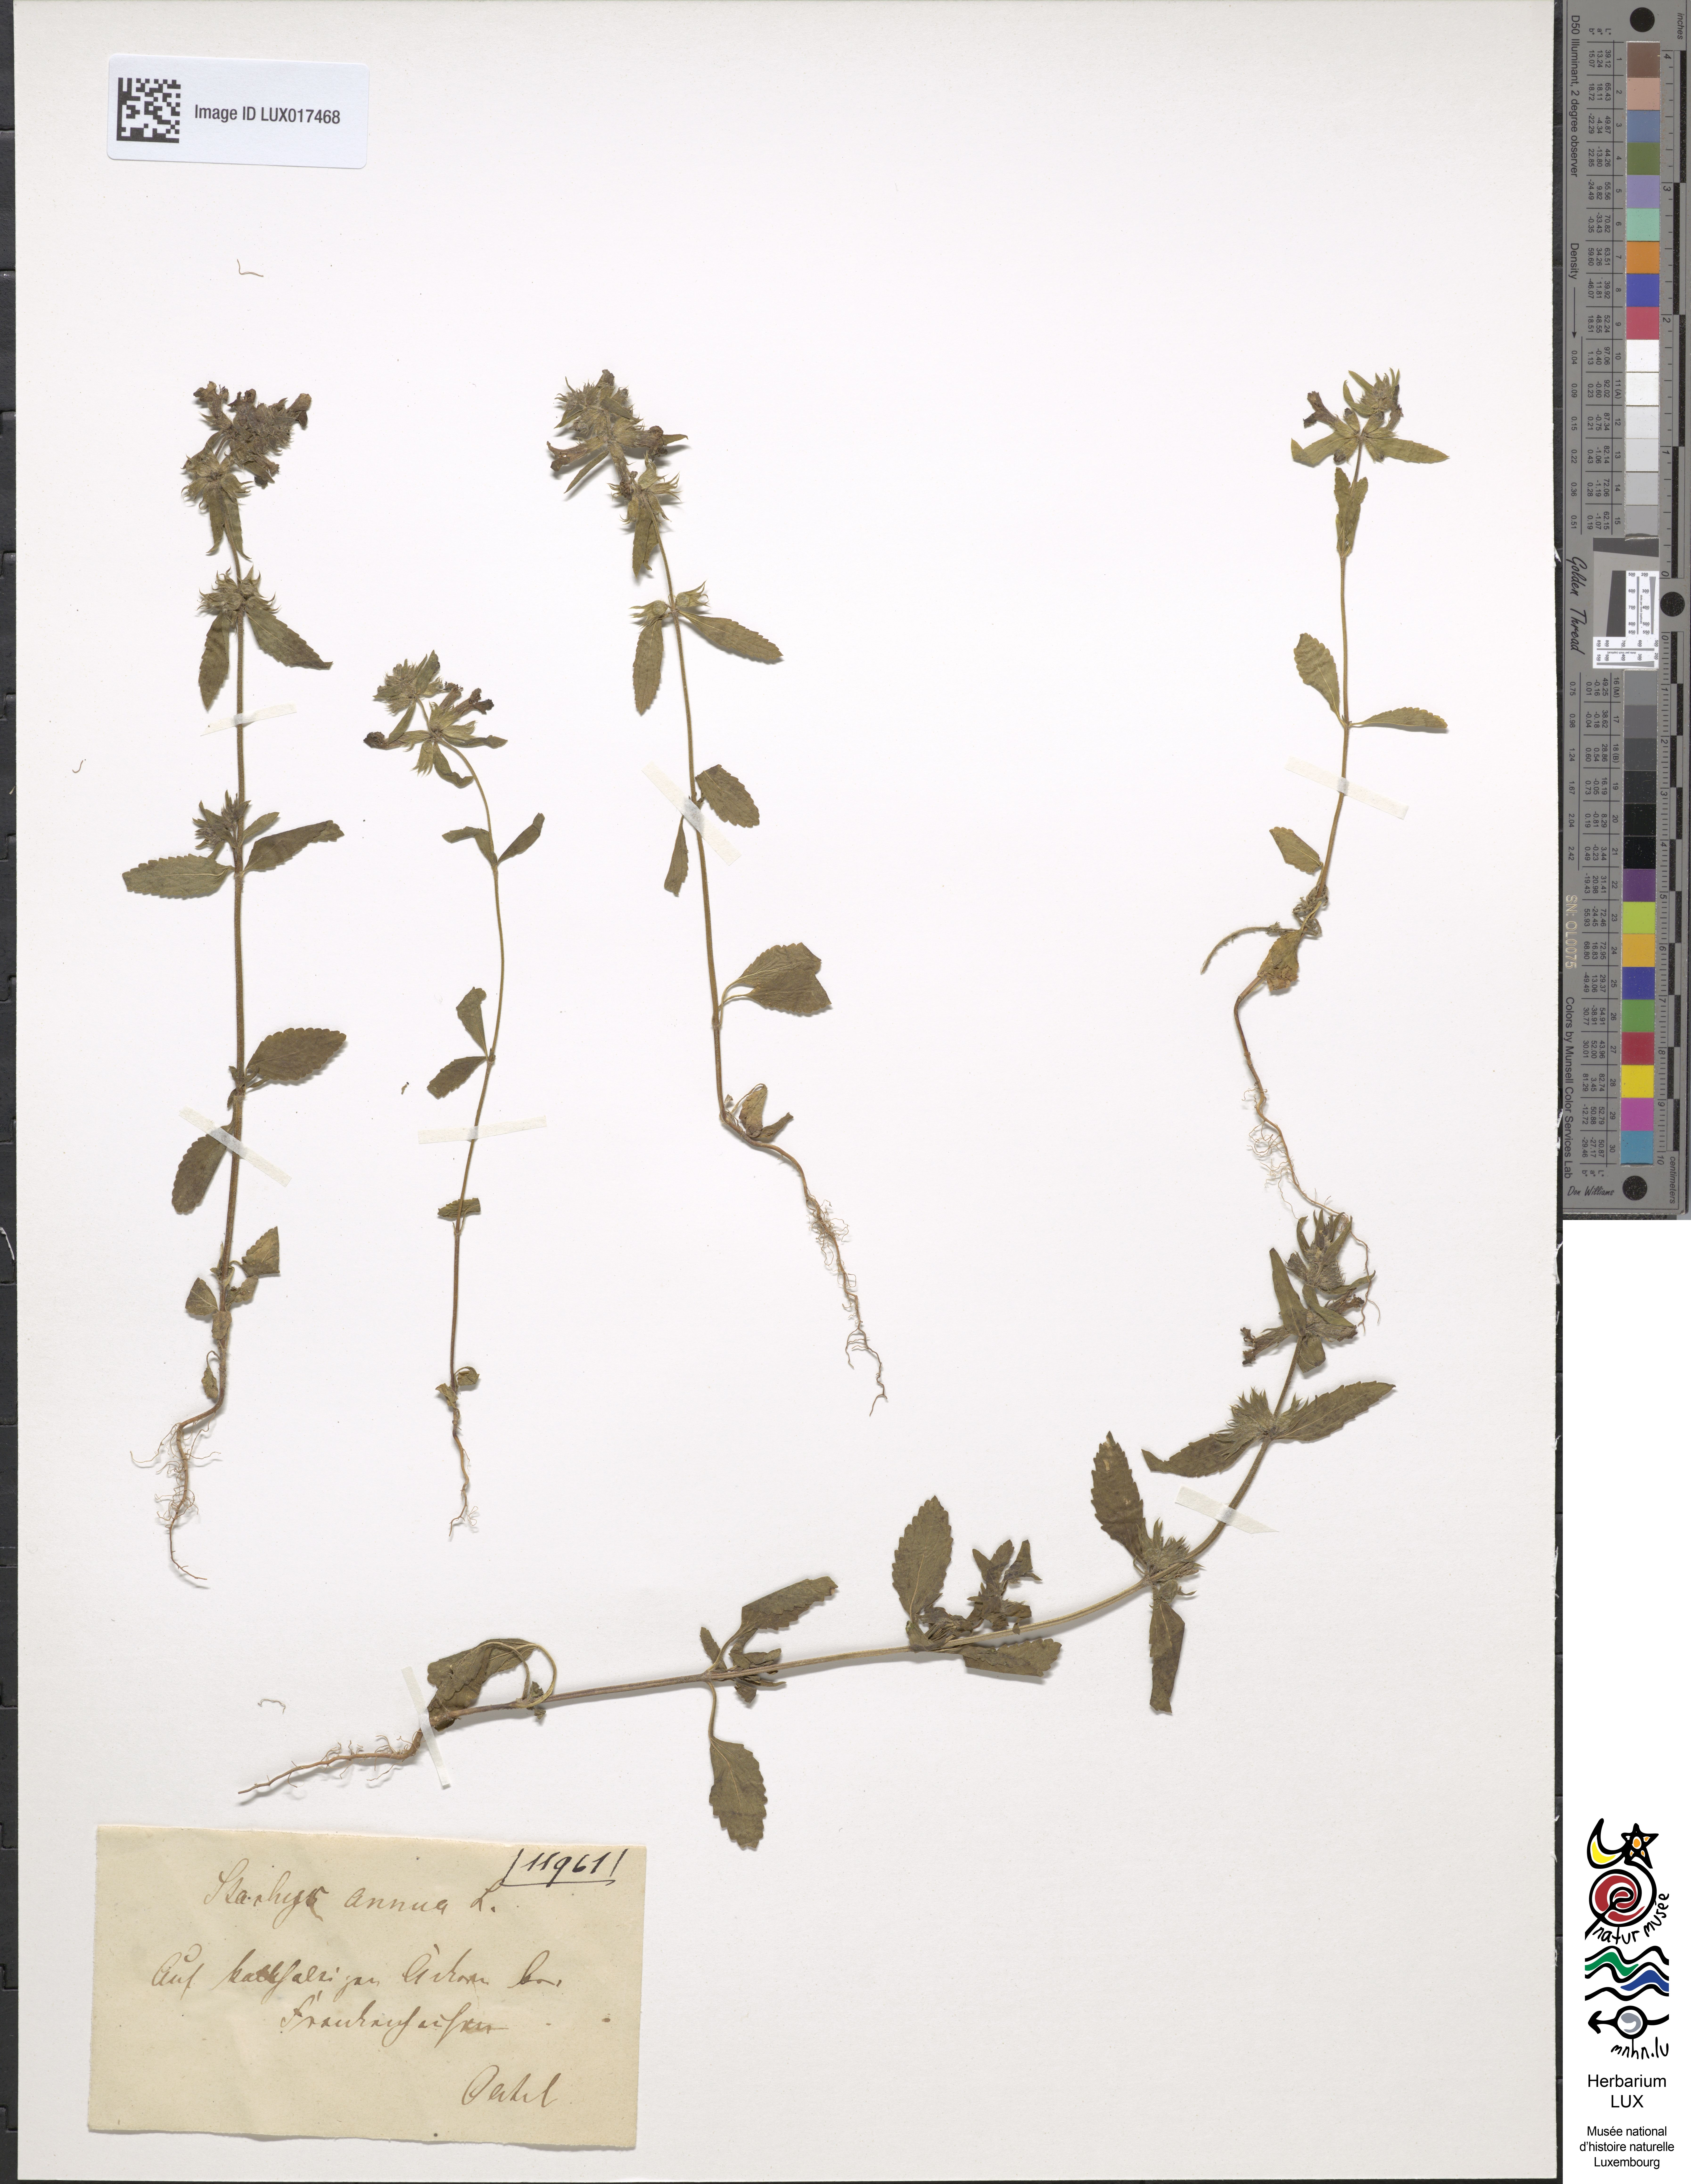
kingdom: Plantae
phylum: Tracheophyta
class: Magnoliopsida
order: Lamiales
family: Lamiaceae
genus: Stachys
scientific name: Stachys annua
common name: Annual yellow-woundwort
